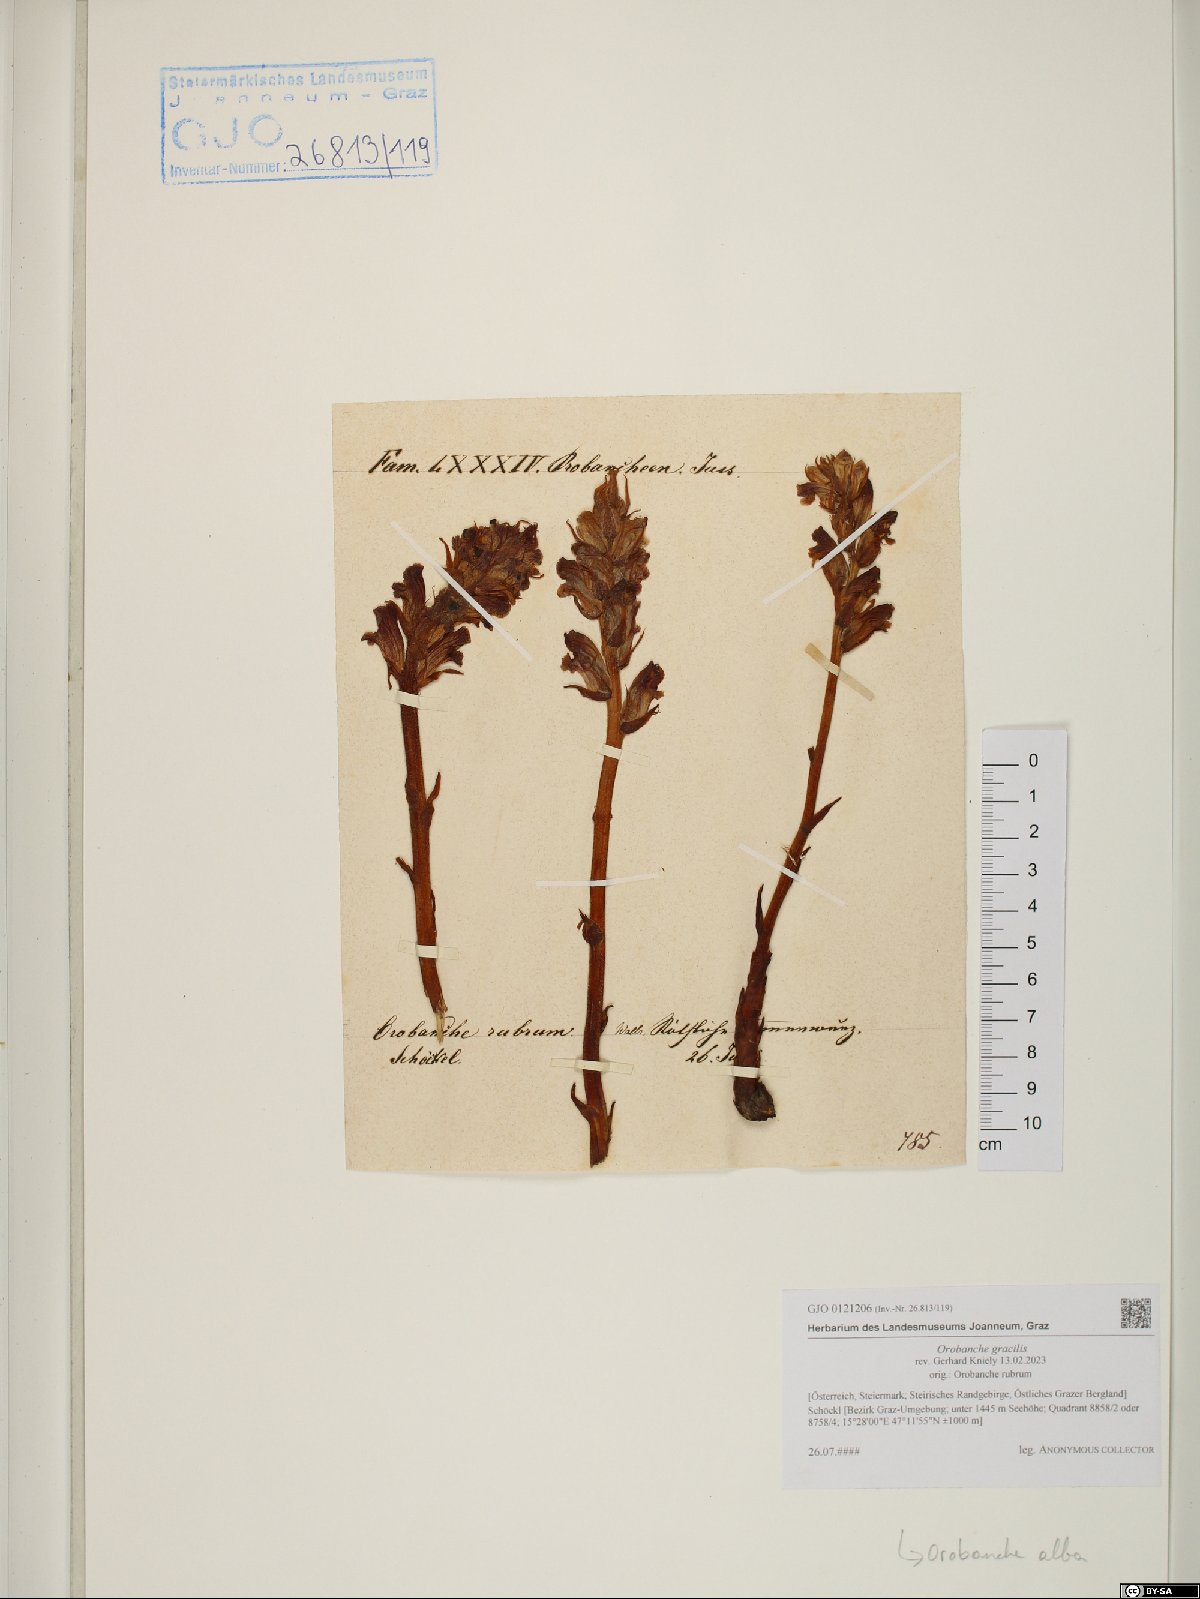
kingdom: Plantae
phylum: Tracheophyta
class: Magnoliopsida
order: Lamiales
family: Orobanchaceae
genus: Orobanche
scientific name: Orobanche gracilis
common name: Slender broomrape
